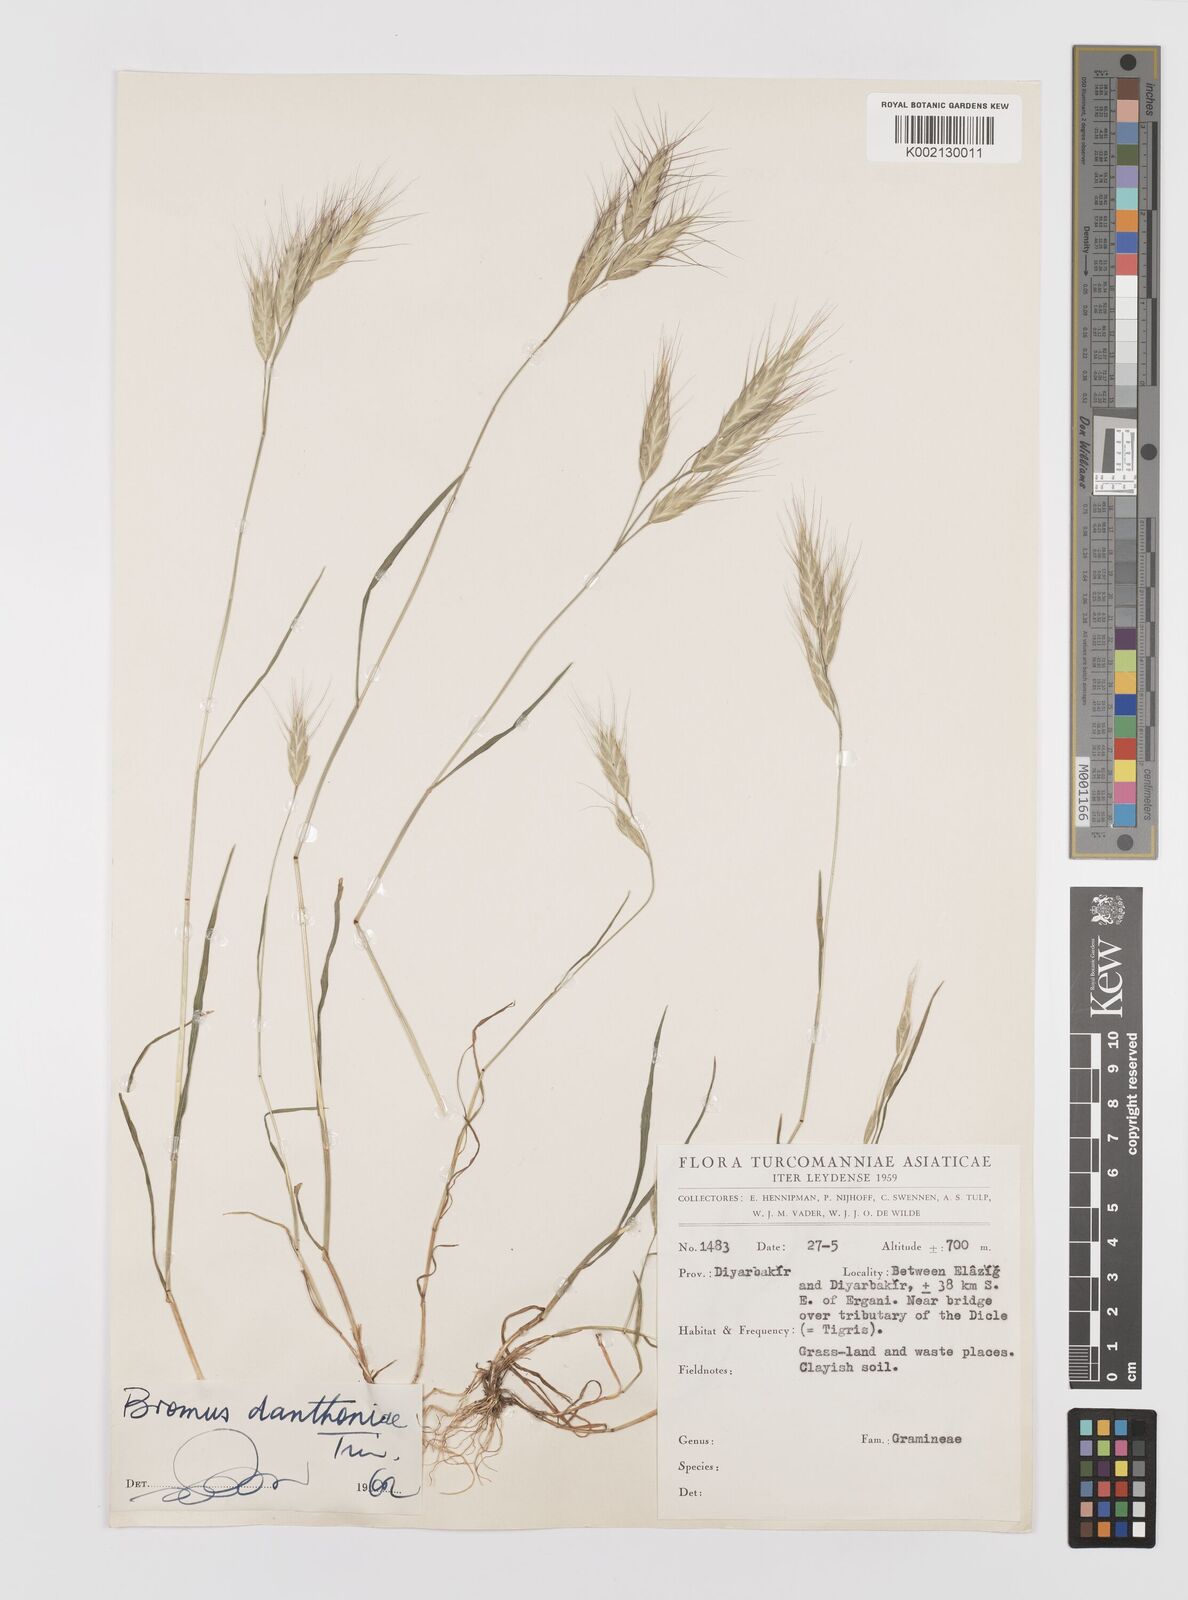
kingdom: Plantae
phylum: Tracheophyta
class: Liliopsida
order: Poales
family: Poaceae
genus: Bromus
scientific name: Bromus danthoniae
